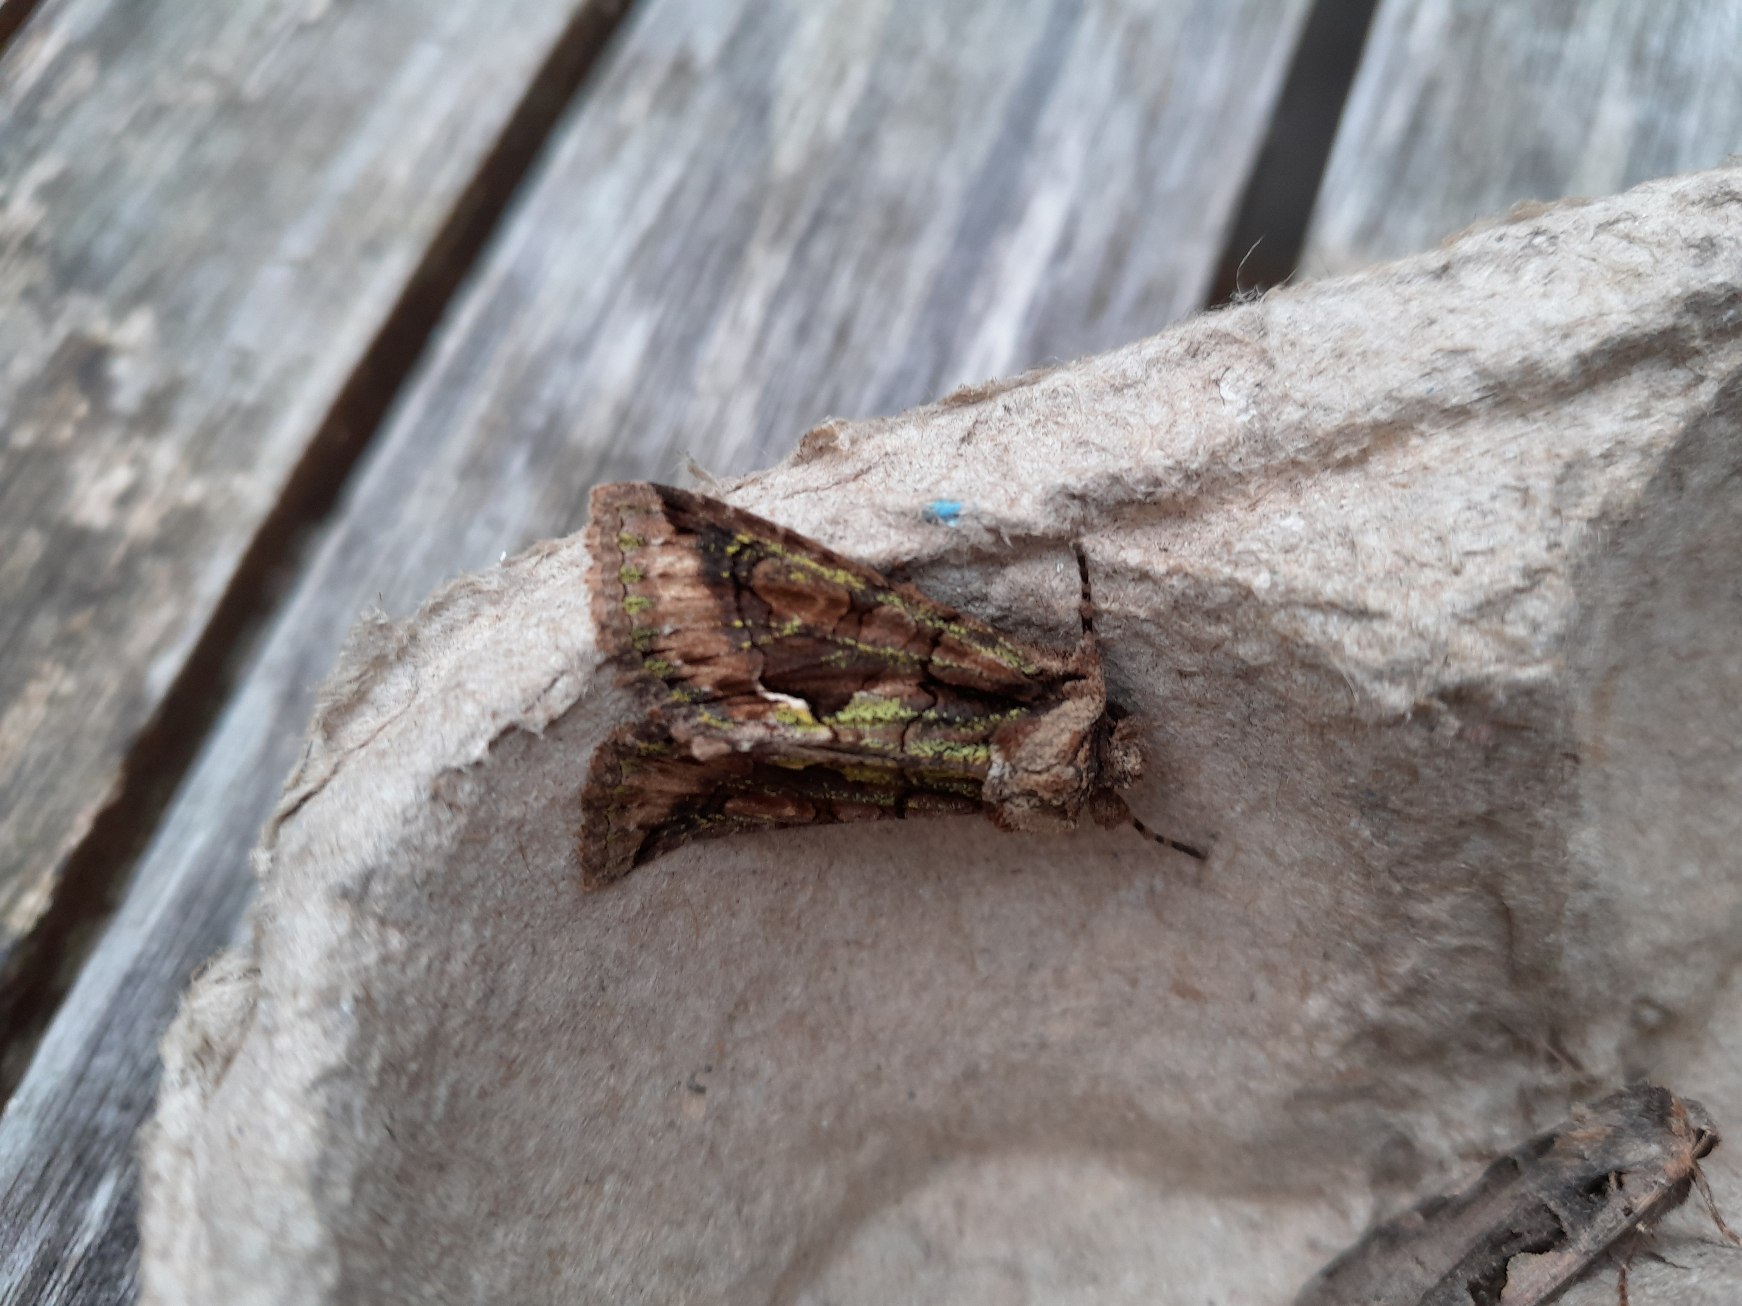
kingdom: Animalia
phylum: Arthropoda
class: Insecta
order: Lepidoptera
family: Noctuidae
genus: Allophyes
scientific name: Allophyes oxyacanthae
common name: Tjørneugle
